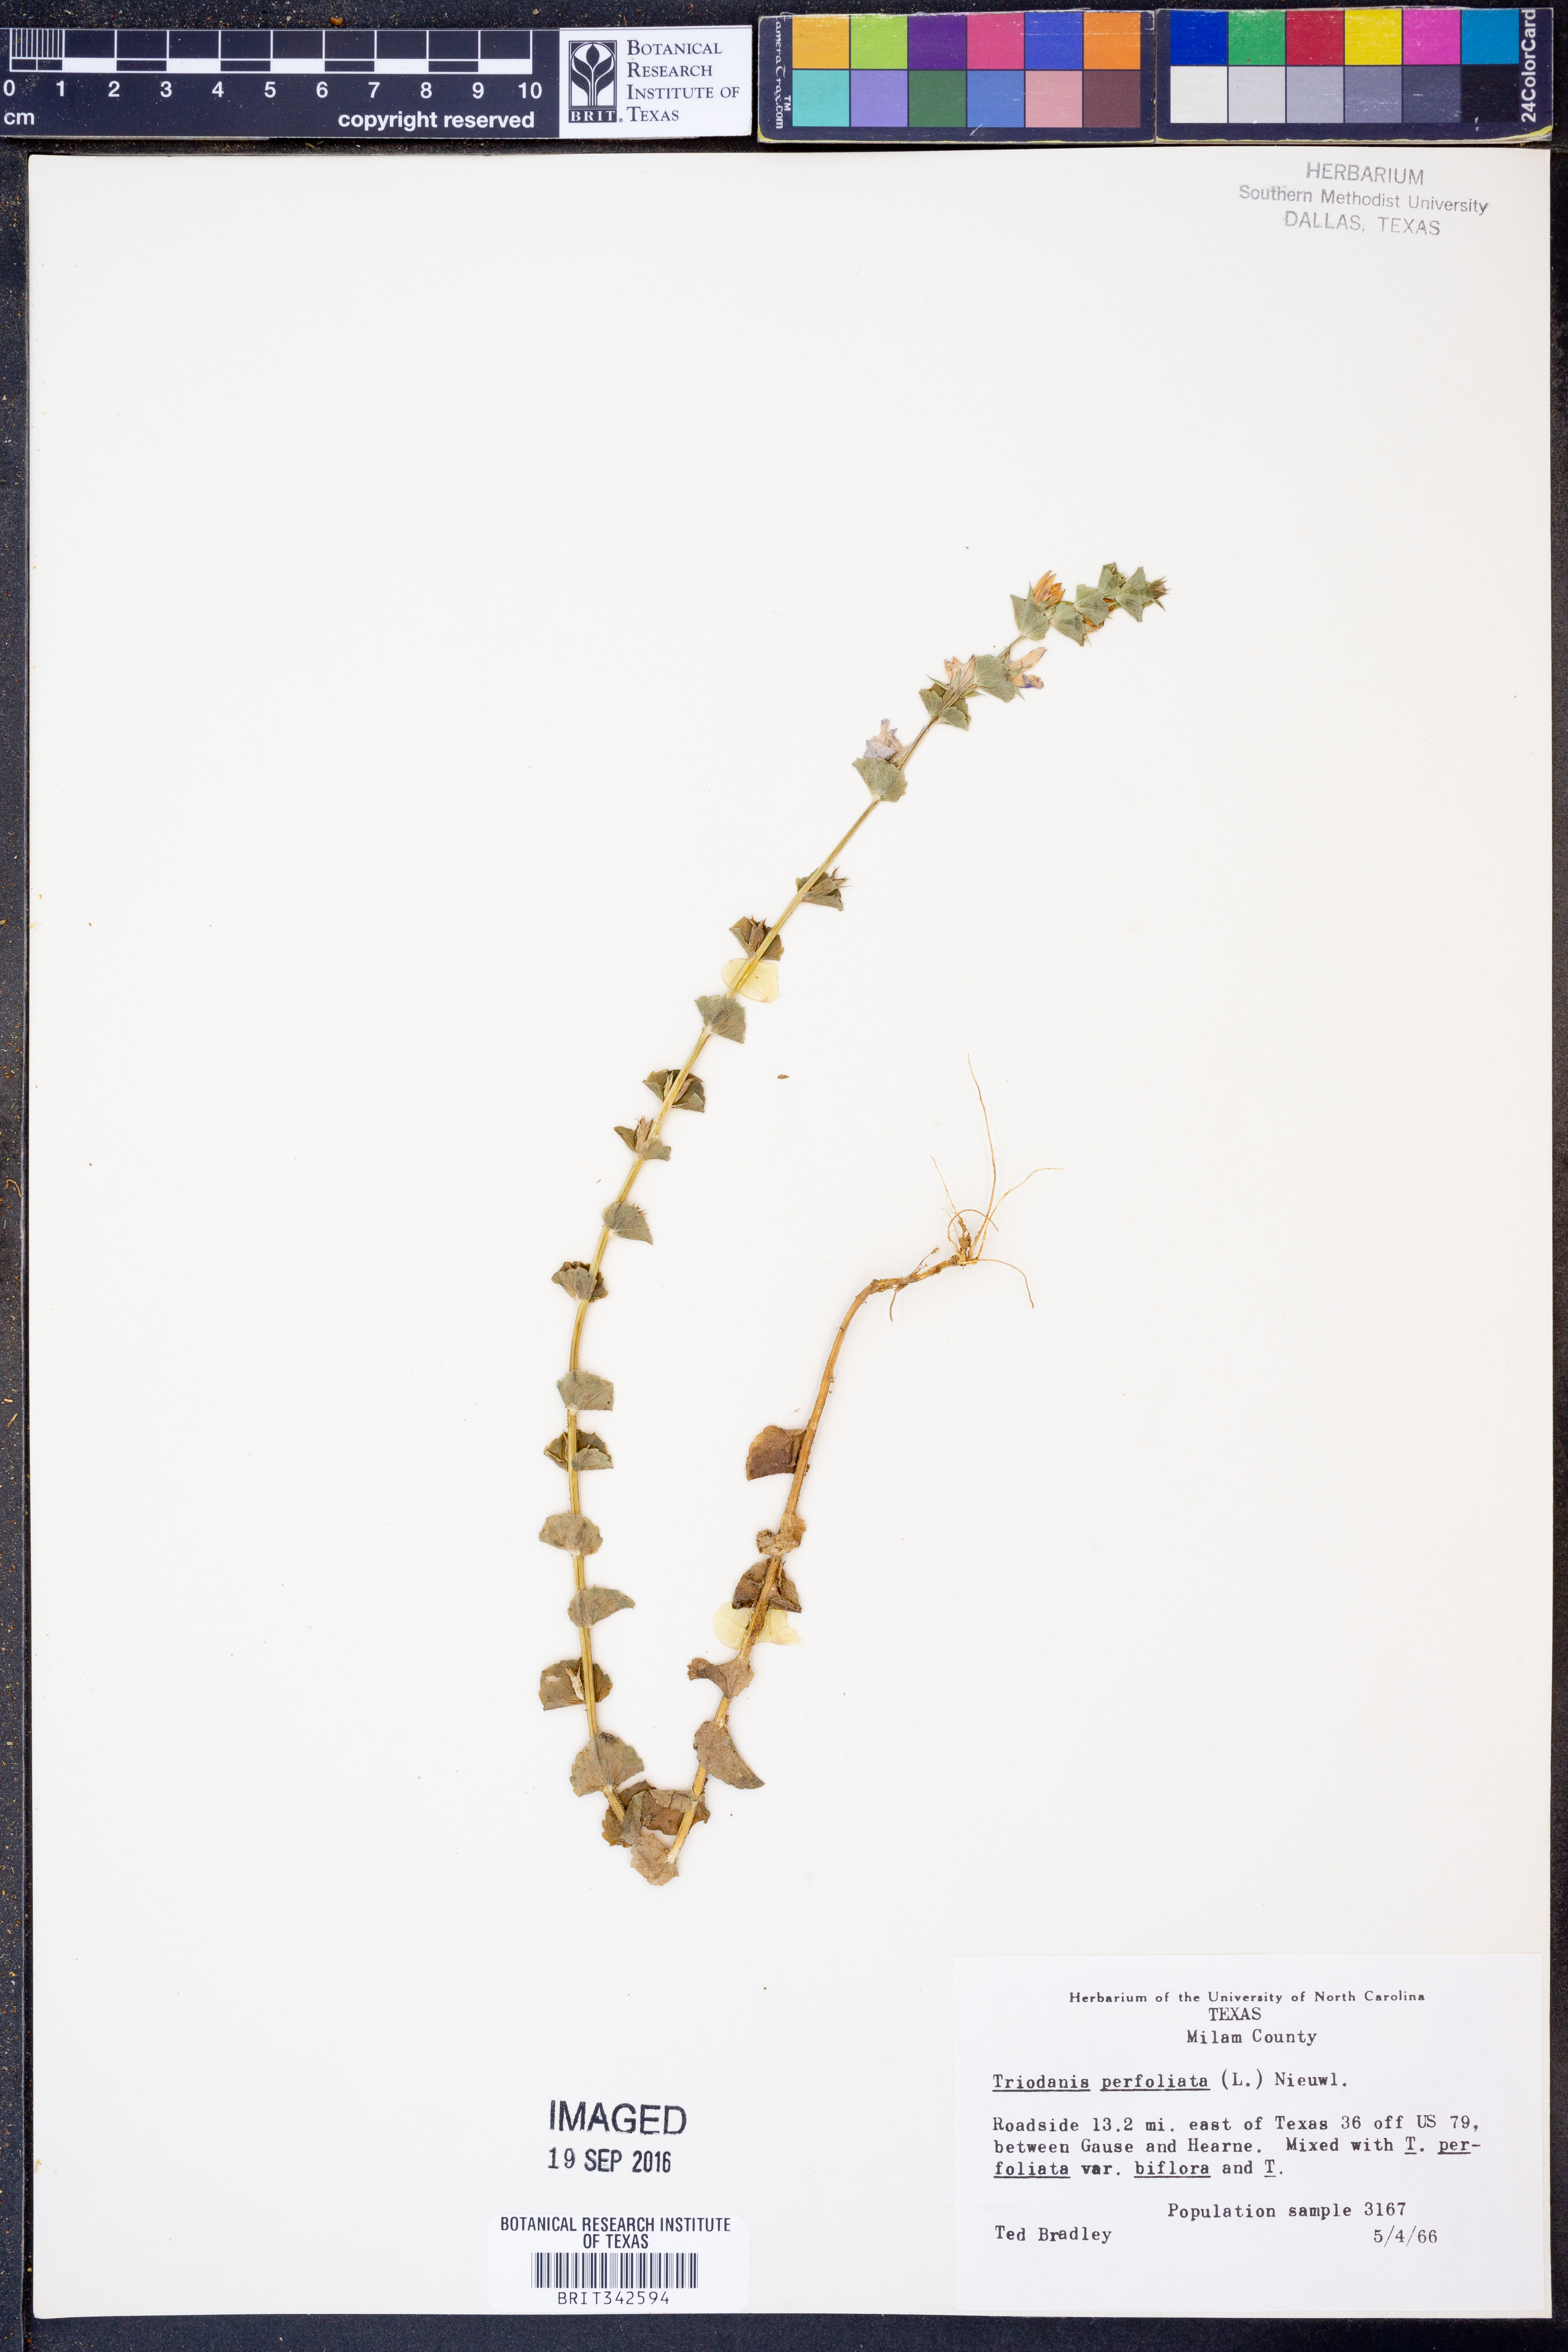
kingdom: Plantae
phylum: Tracheophyta
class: Magnoliopsida
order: Asterales
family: Campanulaceae
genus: Triodanis
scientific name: Triodanis perfoliata
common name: Clasping venus' looking-glass
